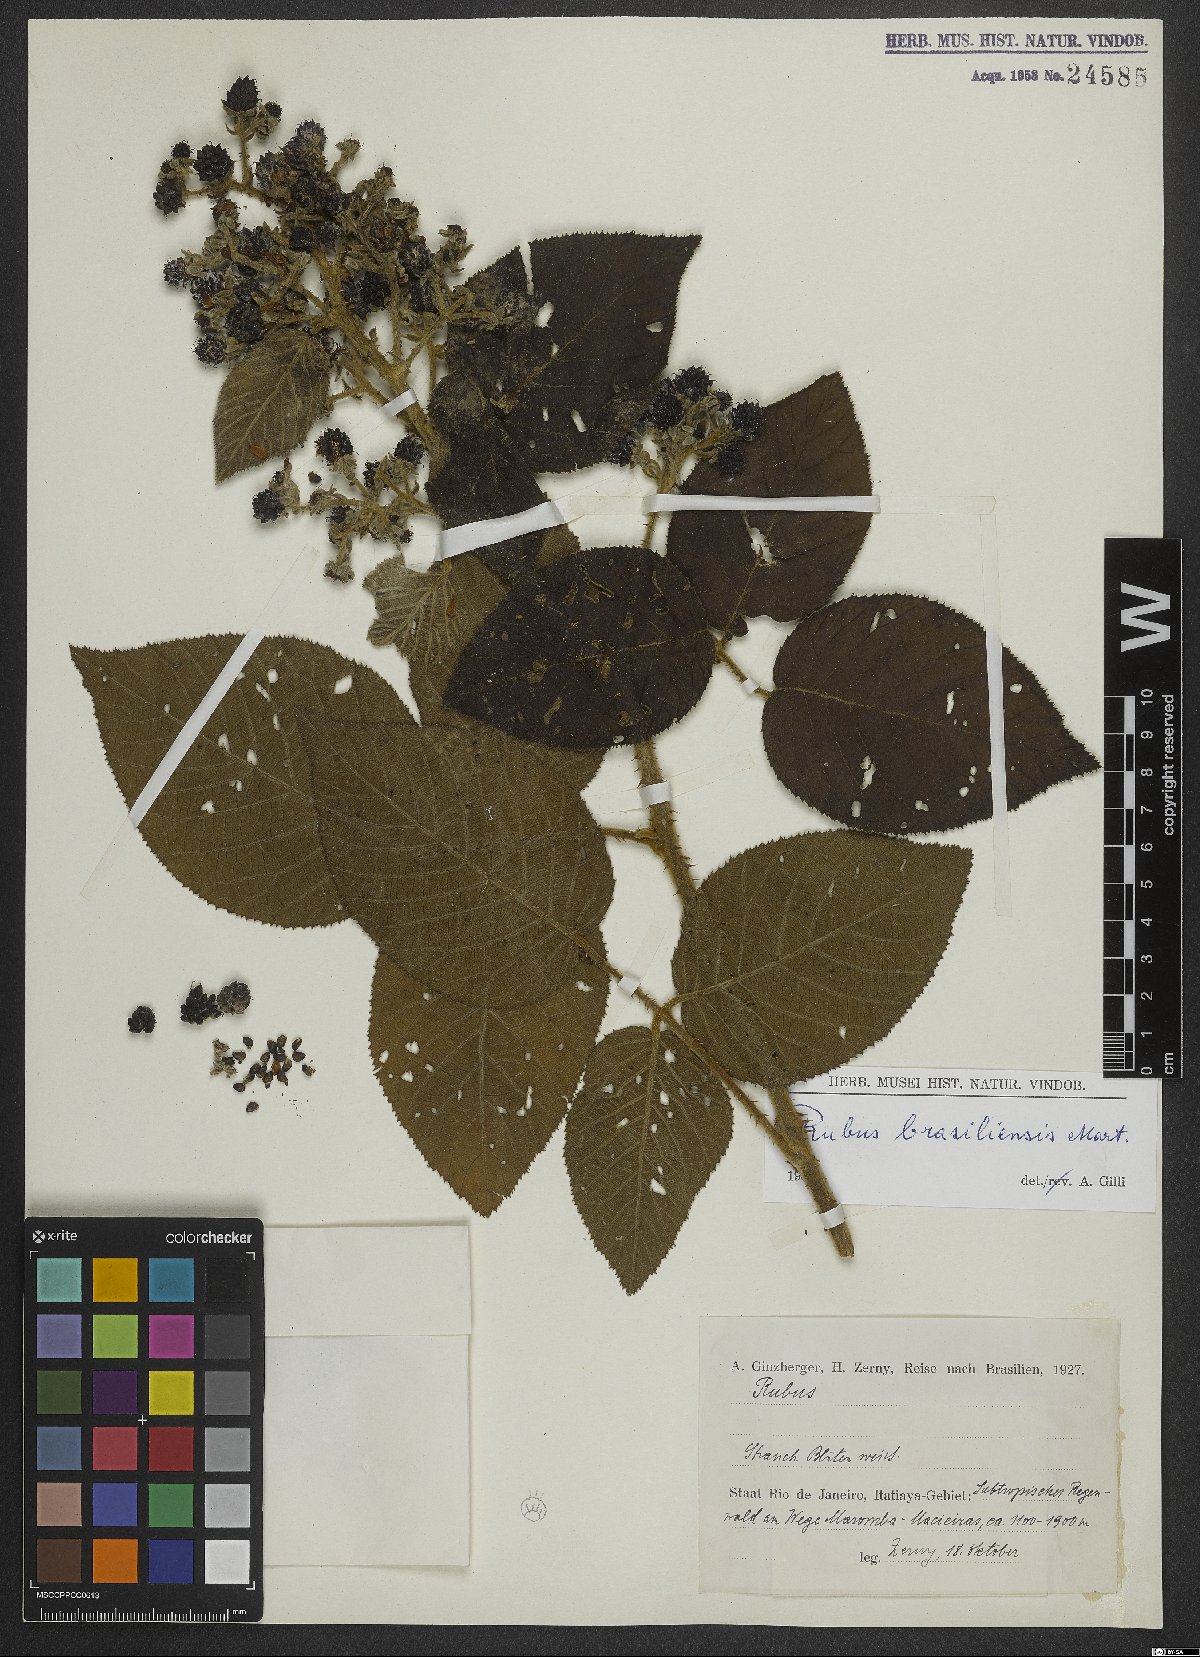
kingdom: Plantae
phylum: Tracheophyta
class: Magnoliopsida
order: Rosales
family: Rosaceae
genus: Rubus
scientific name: Rubus brasiliensis
